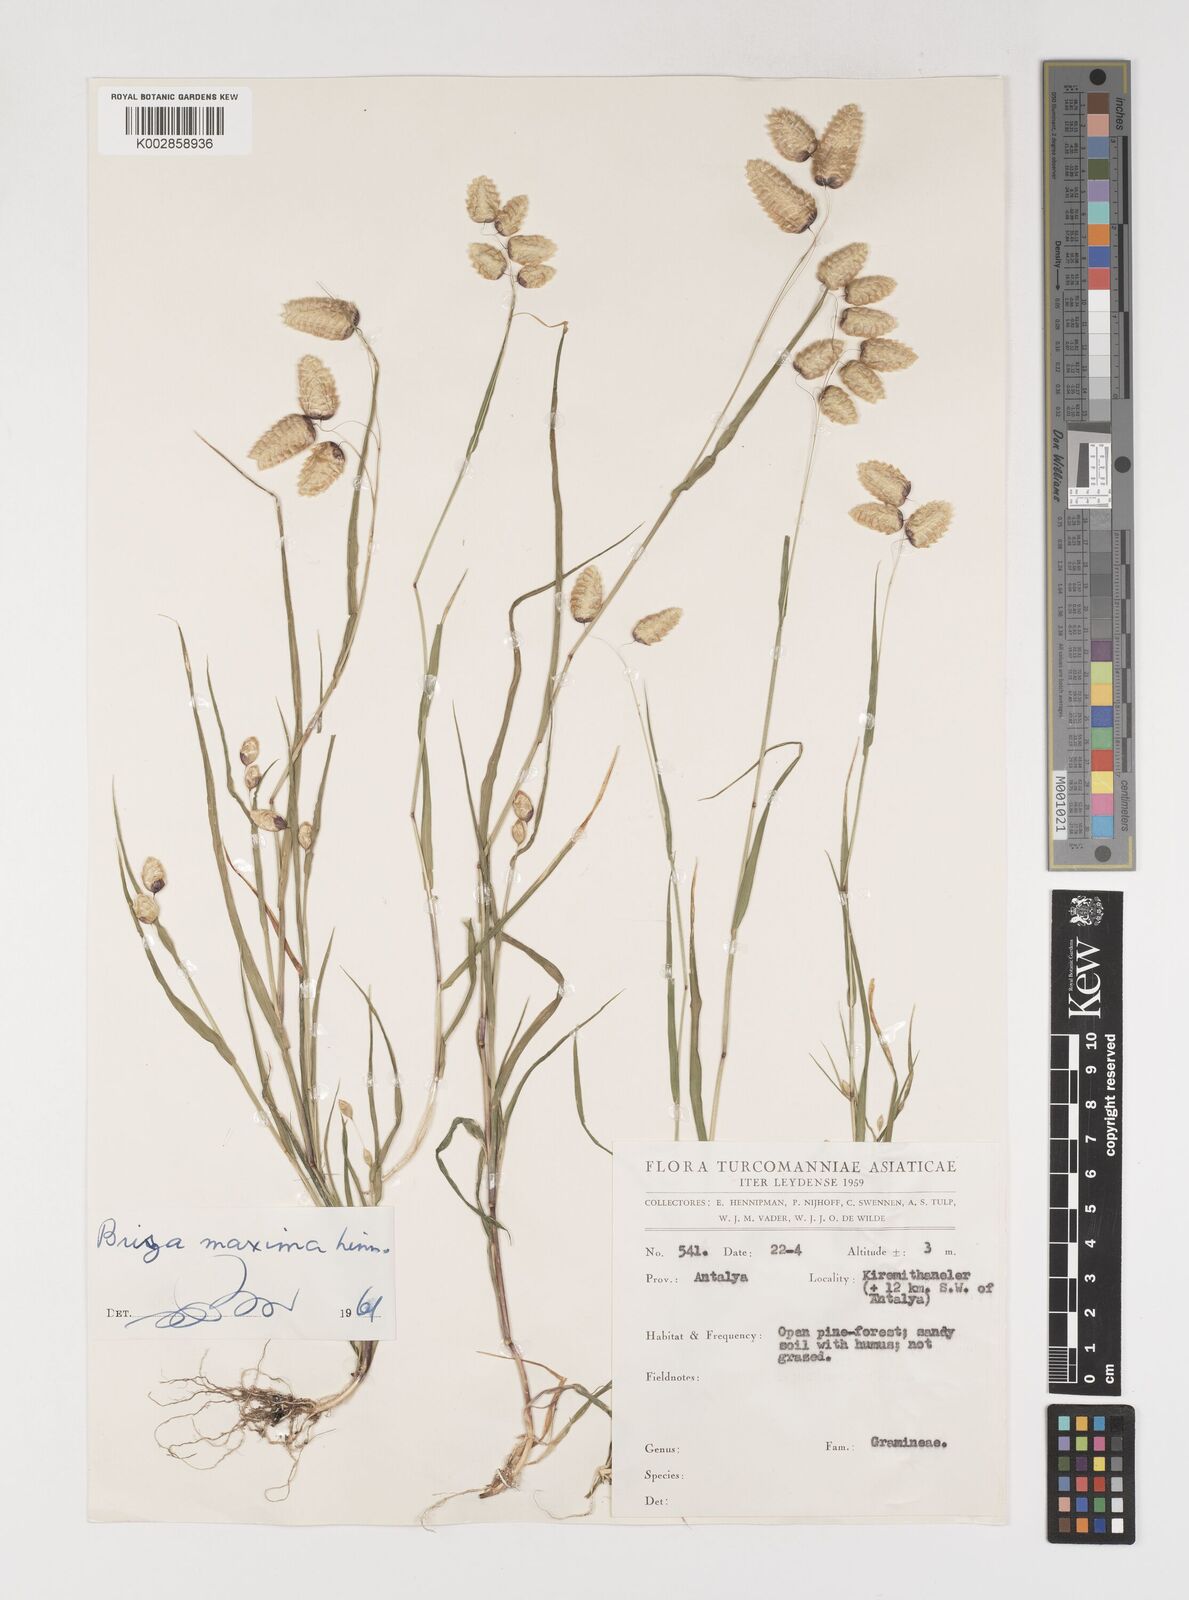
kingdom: Plantae
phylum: Tracheophyta
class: Liliopsida
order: Poales
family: Poaceae
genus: Briza
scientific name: Briza maxima
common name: Big quakinggrass
